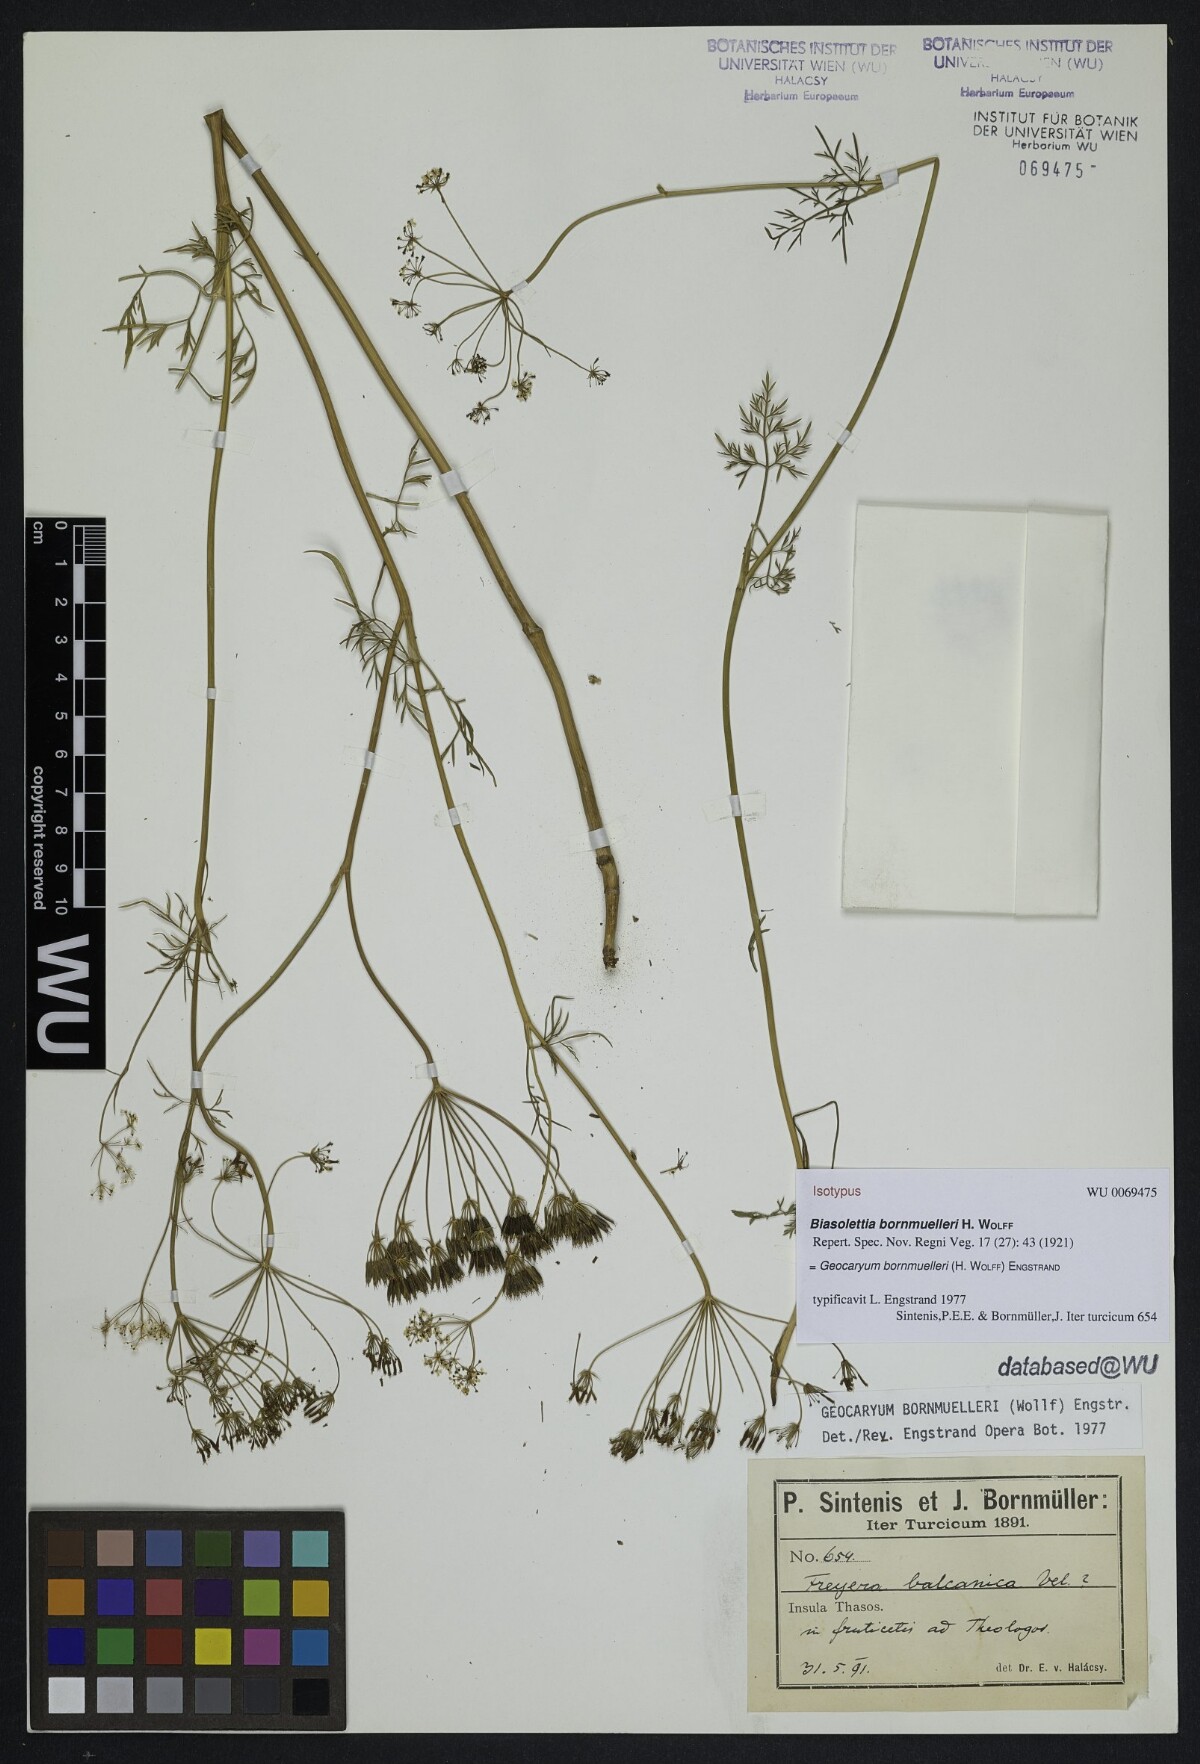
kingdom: Plantae
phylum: Tracheophyta
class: Magnoliopsida
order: Apiales
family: Apiaceae
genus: Geocaryum
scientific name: Geocaryum bornmuelleri
